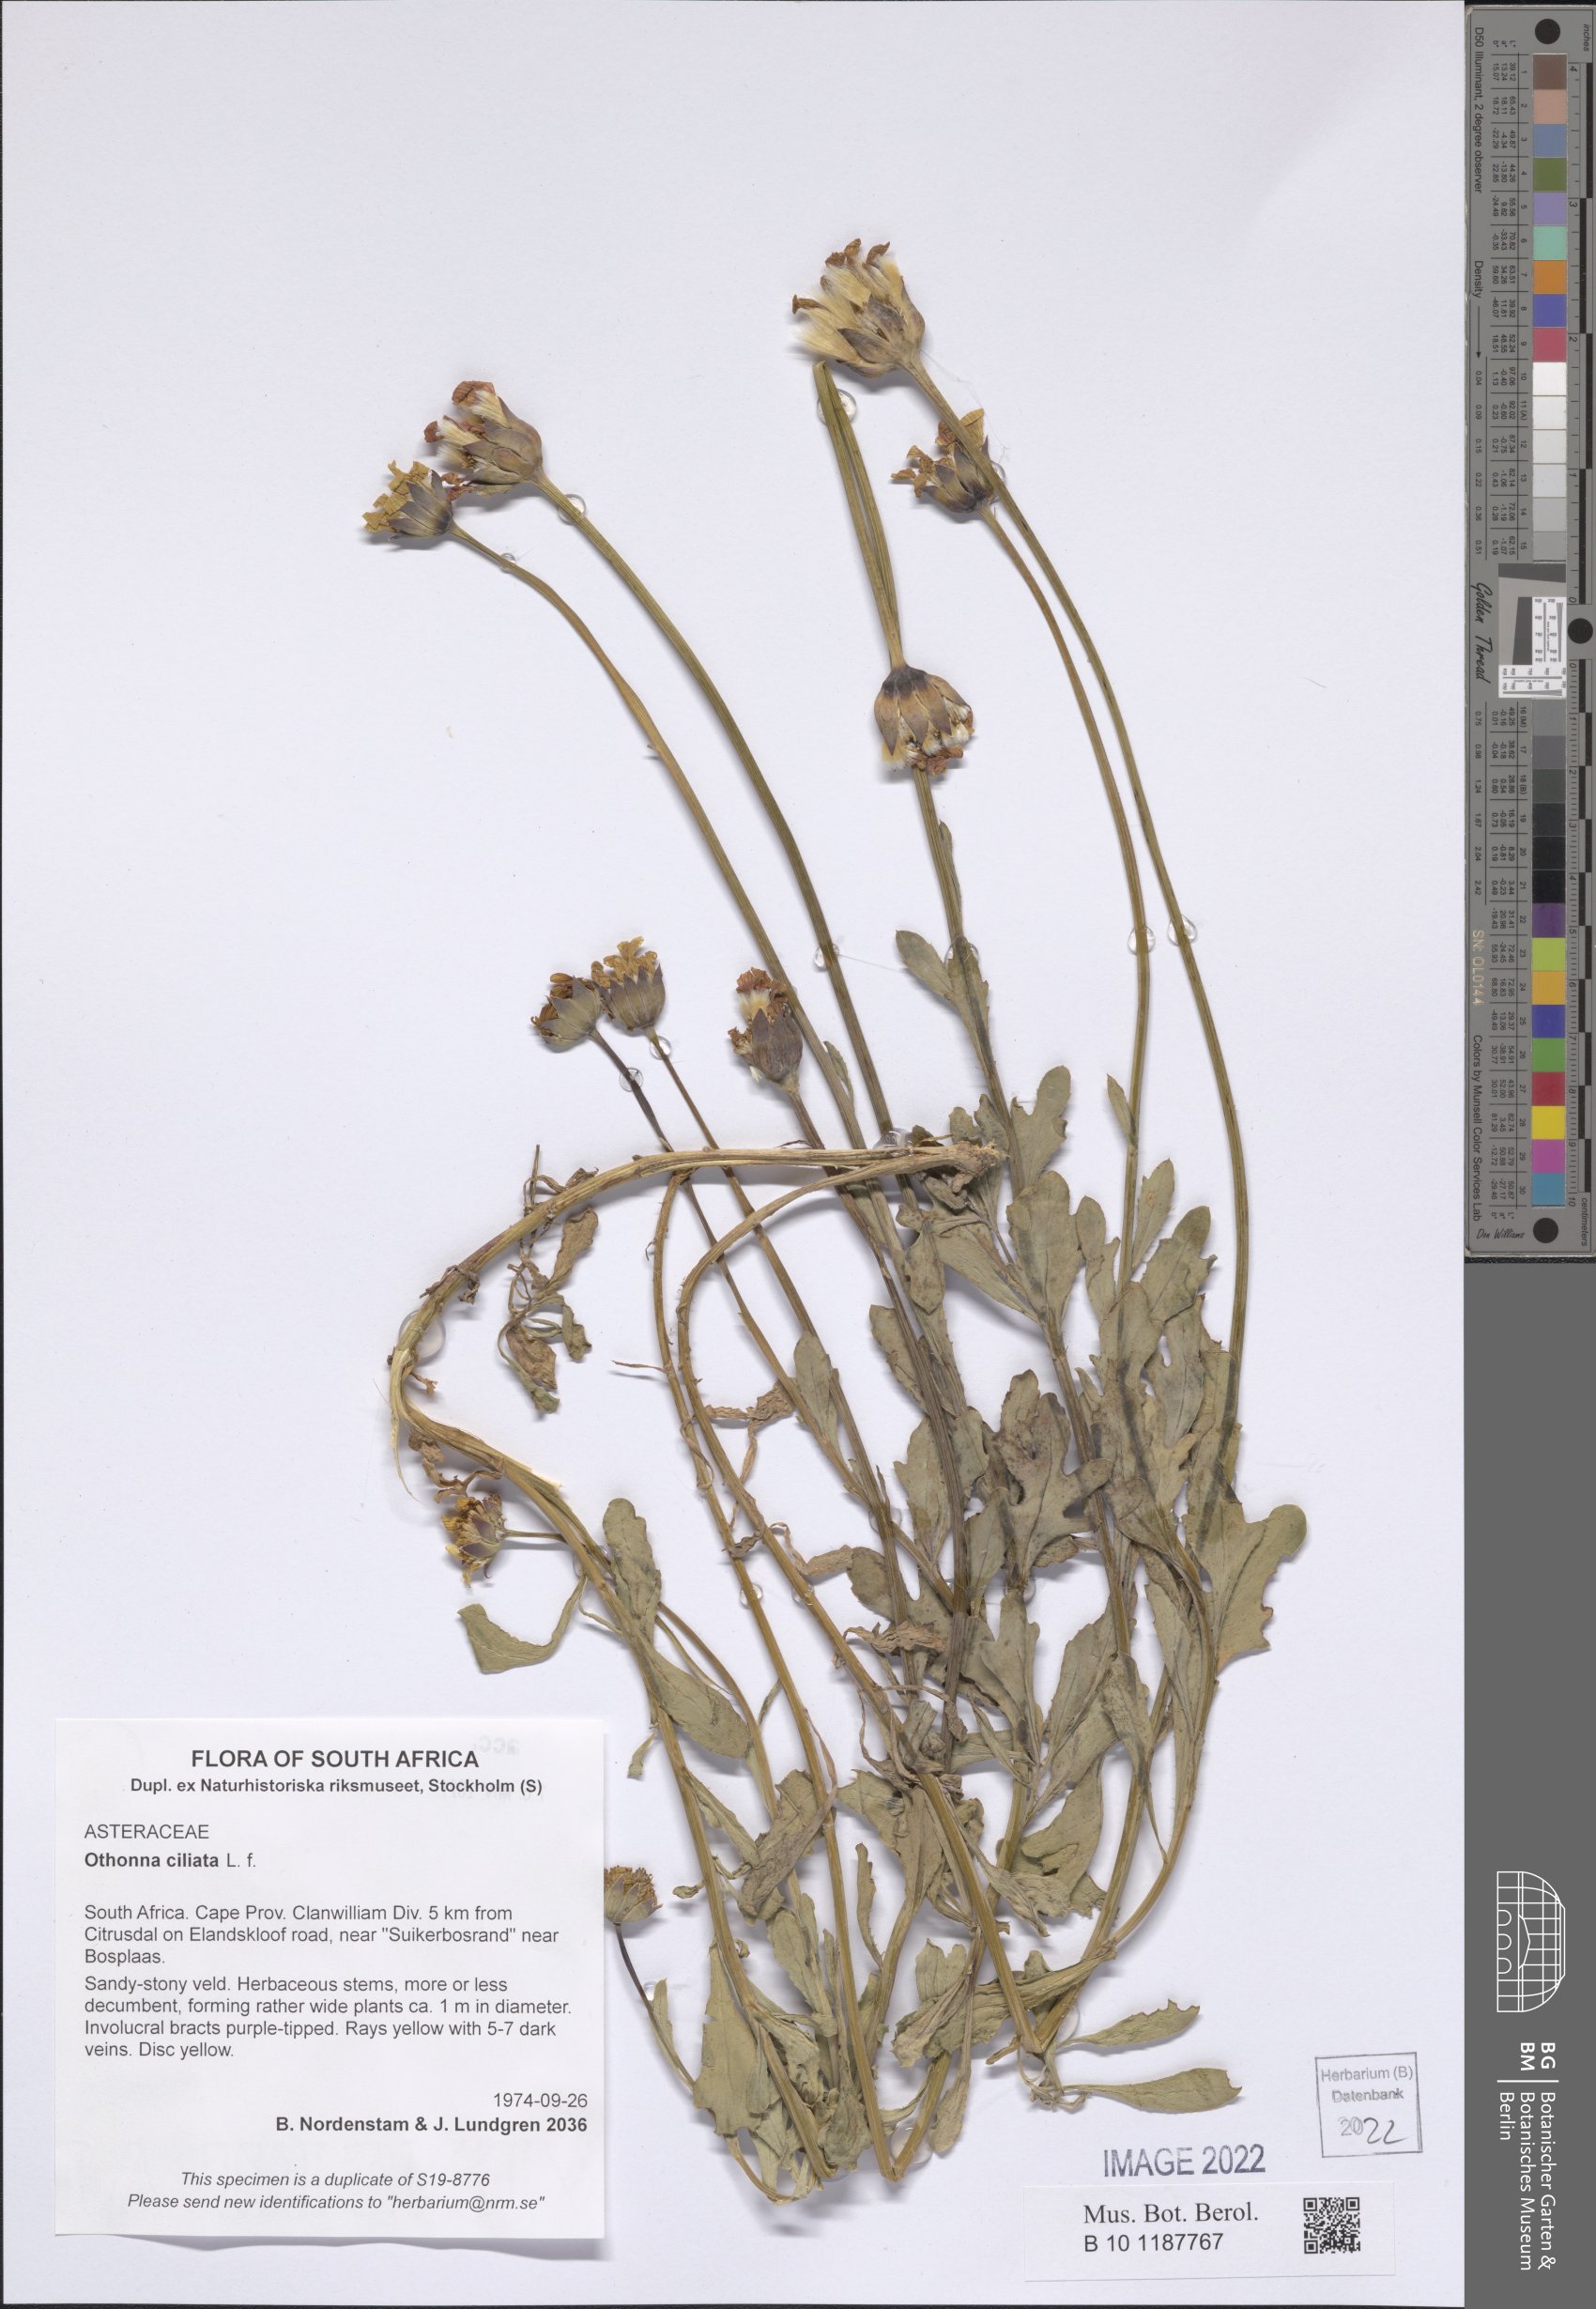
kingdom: Plantae
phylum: Tracheophyta
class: Magnoliopsida
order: Asterales
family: Asteraceae
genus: Othonna
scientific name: Othonna ciliata
